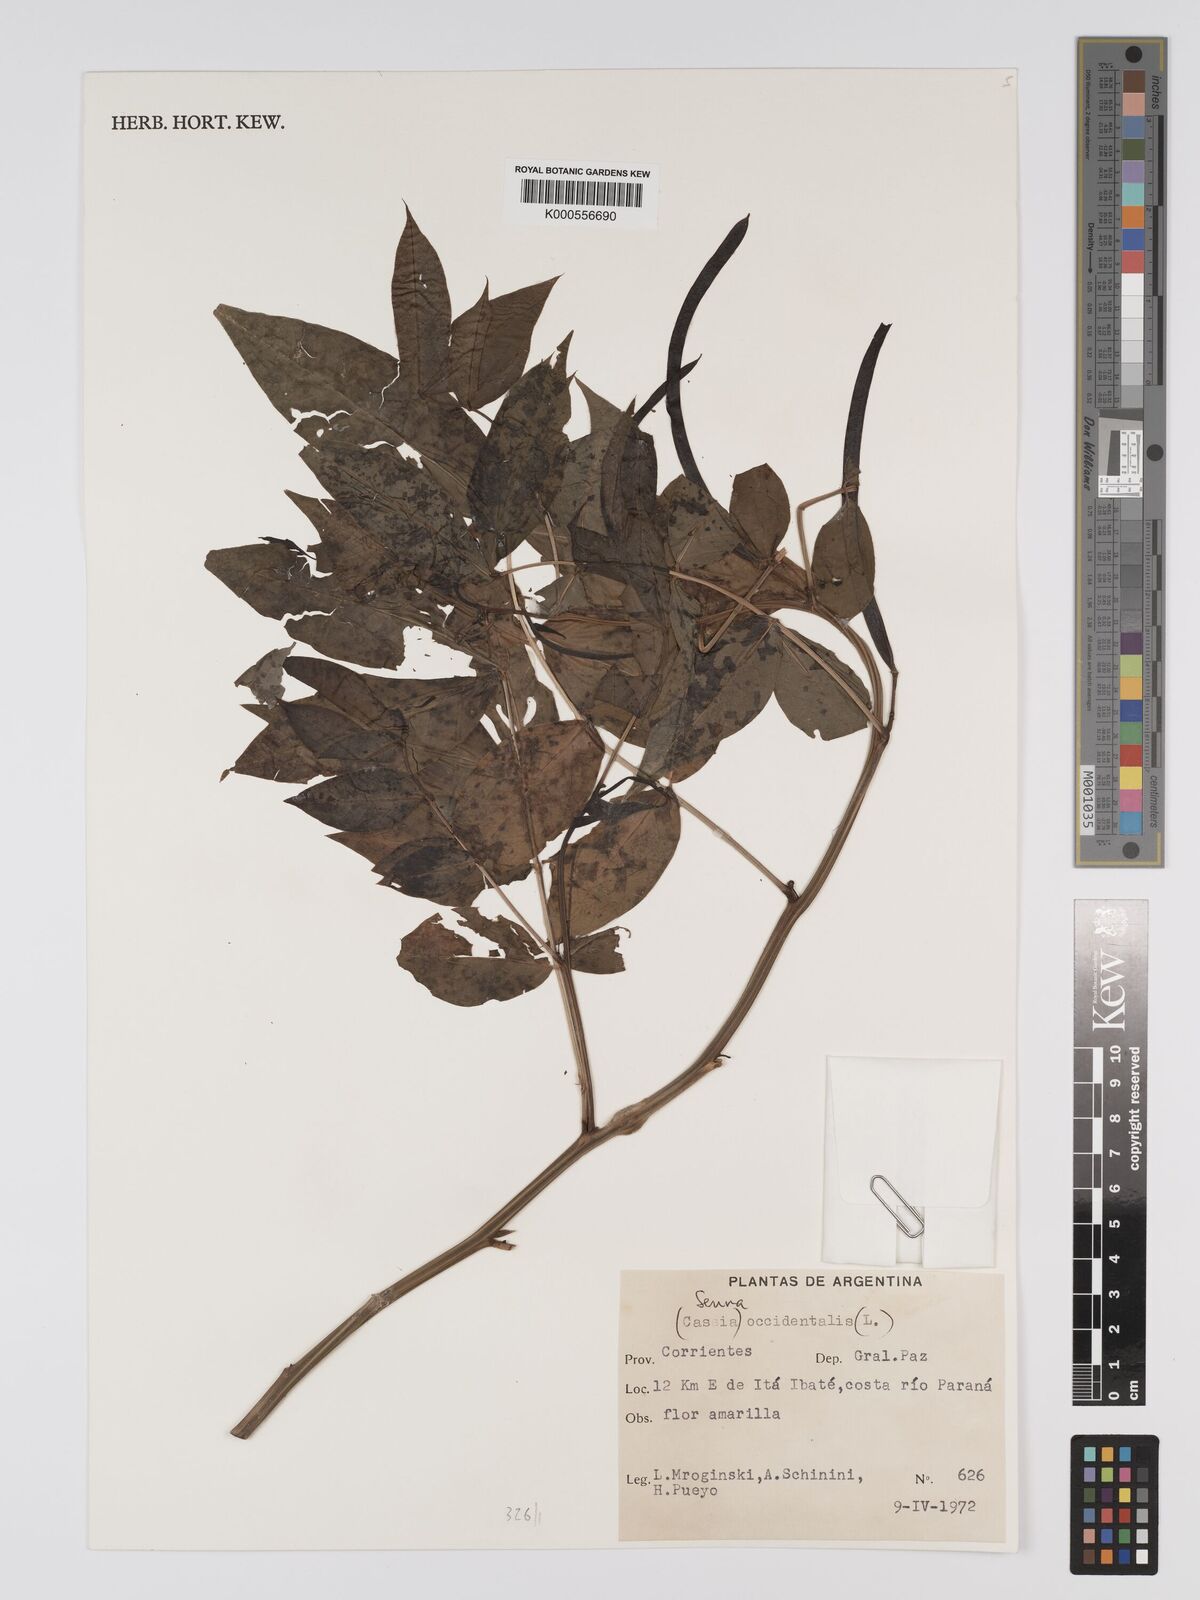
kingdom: Plantae
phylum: Tracheophyta
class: Magnoliopsida
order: Fabales
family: Fabaceae
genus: Senna
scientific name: Senna occidentalis
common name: Septicweed
